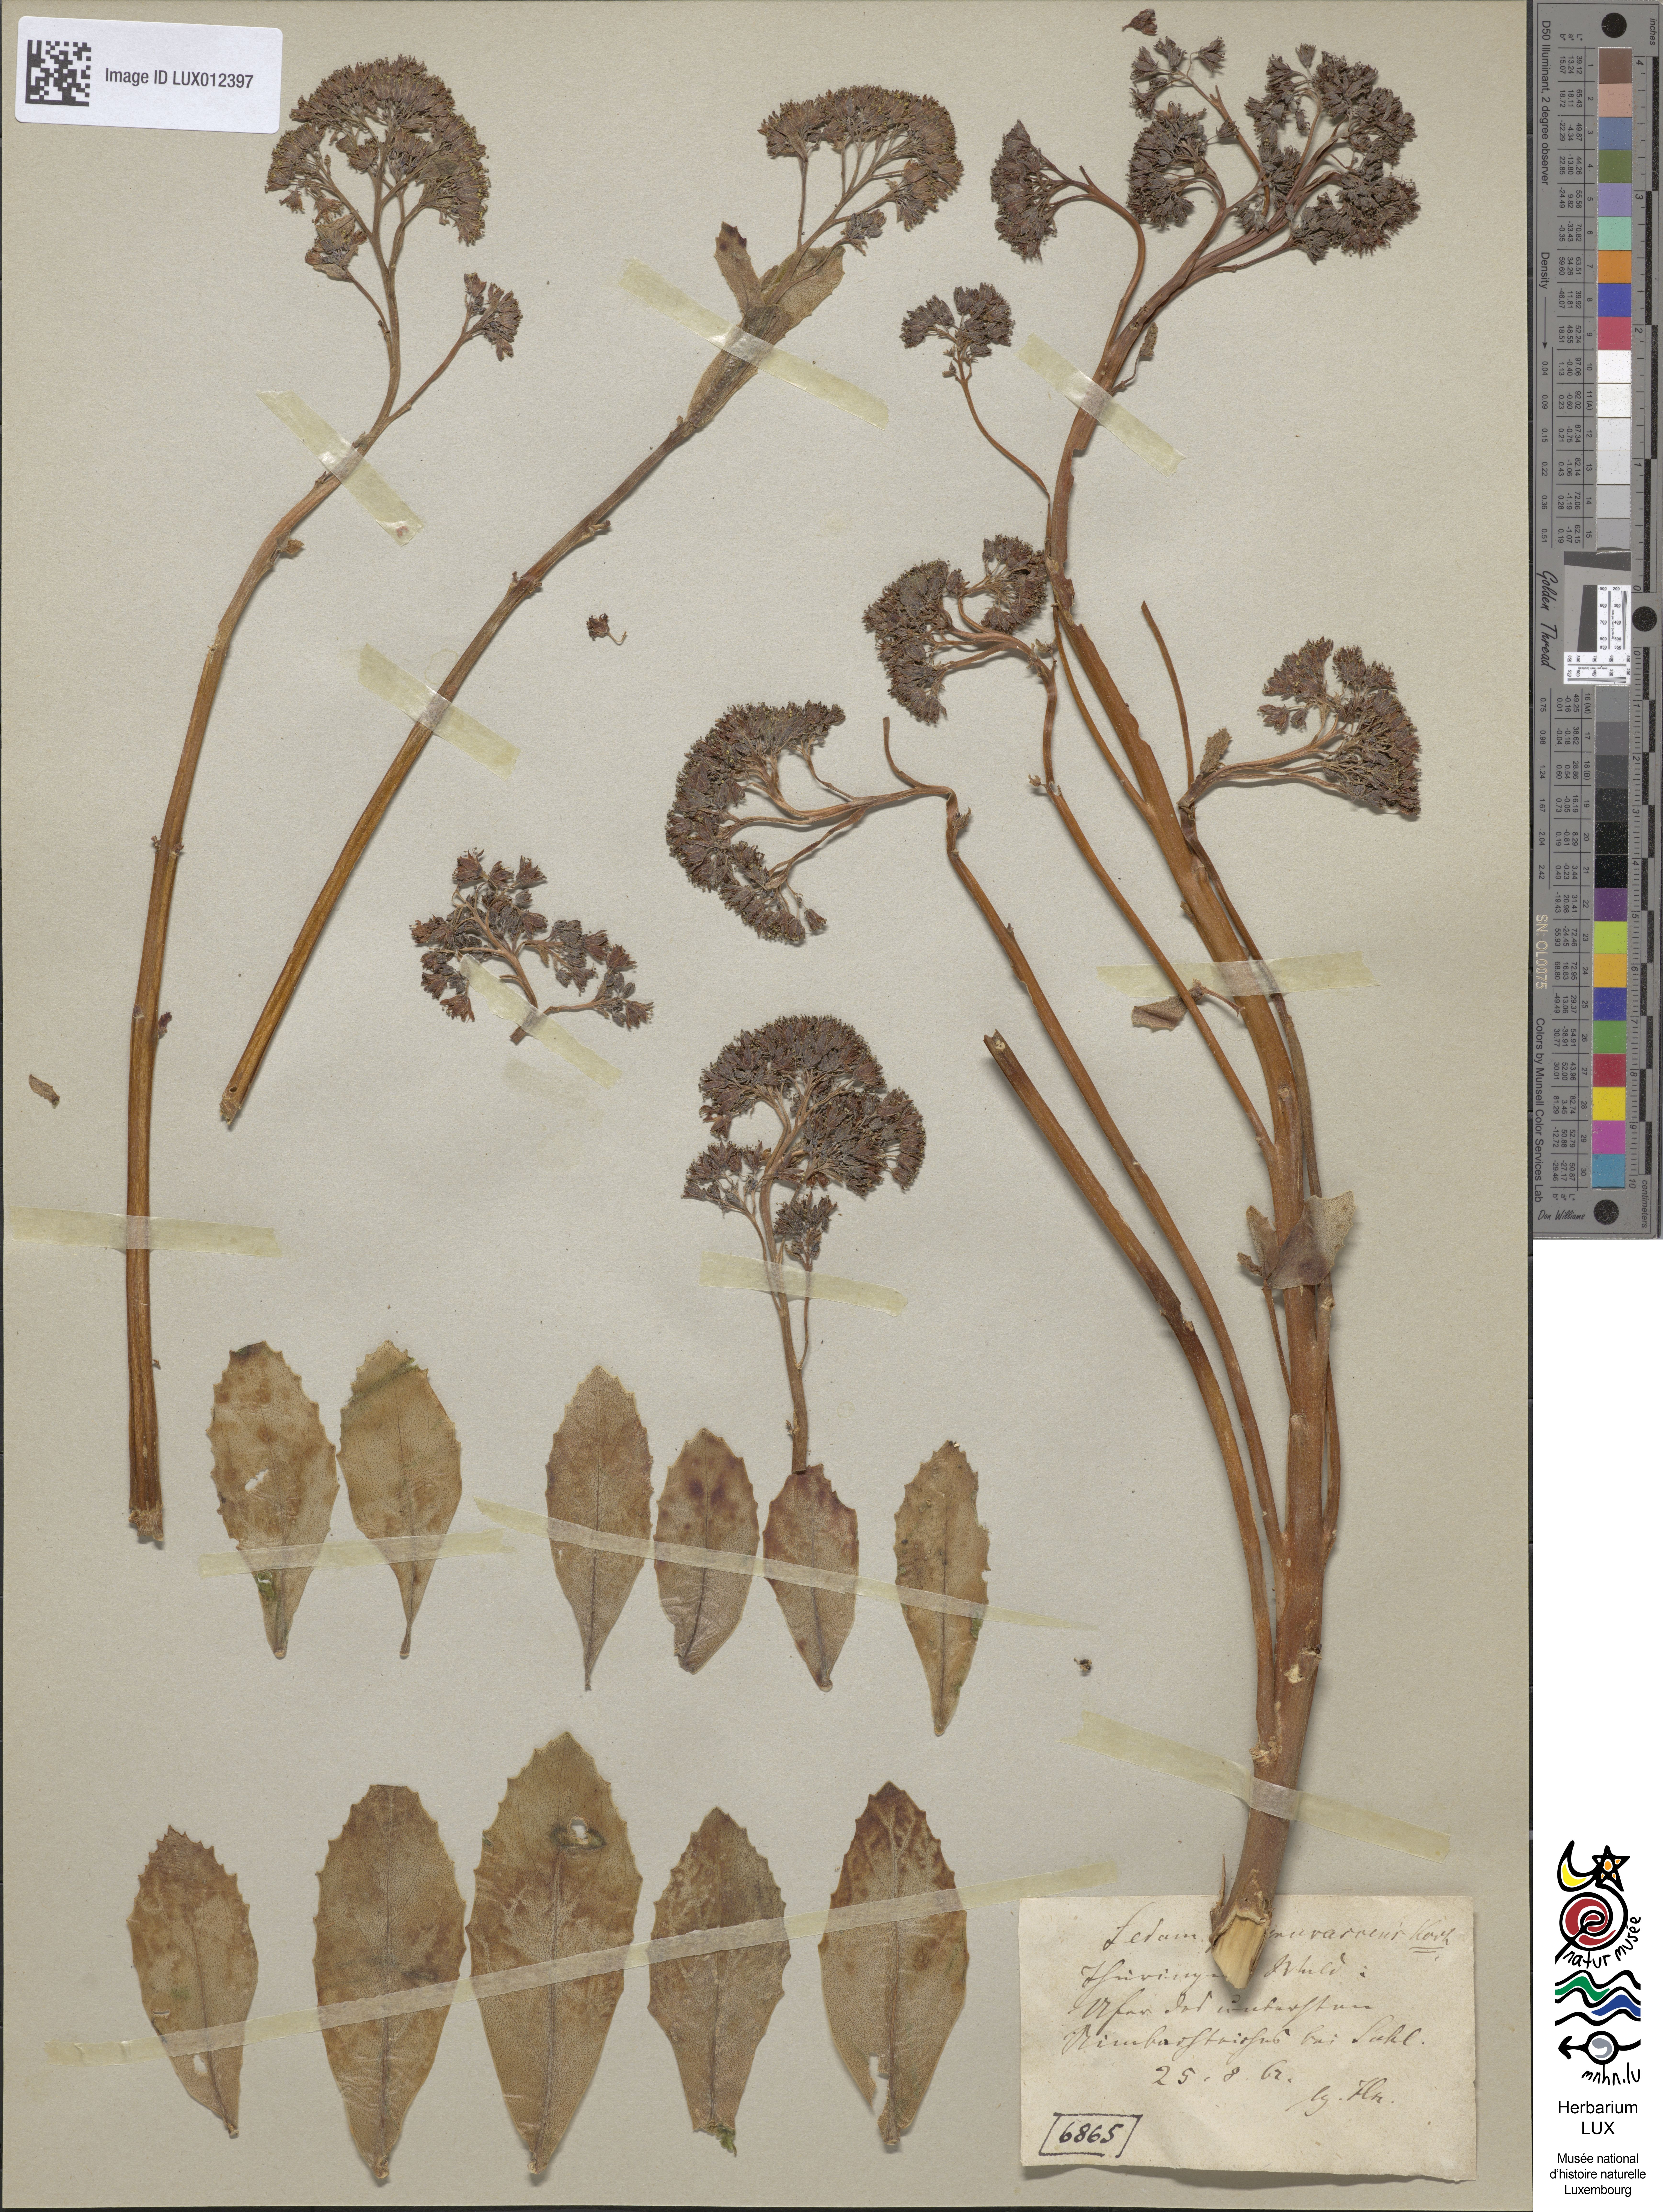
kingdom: Plantae
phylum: Tracheophyta
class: Magnoliopsida
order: Saxifragales
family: Crassulaceae
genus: Hylotelephium
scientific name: Hylotelephium telephium
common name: Live-forever
